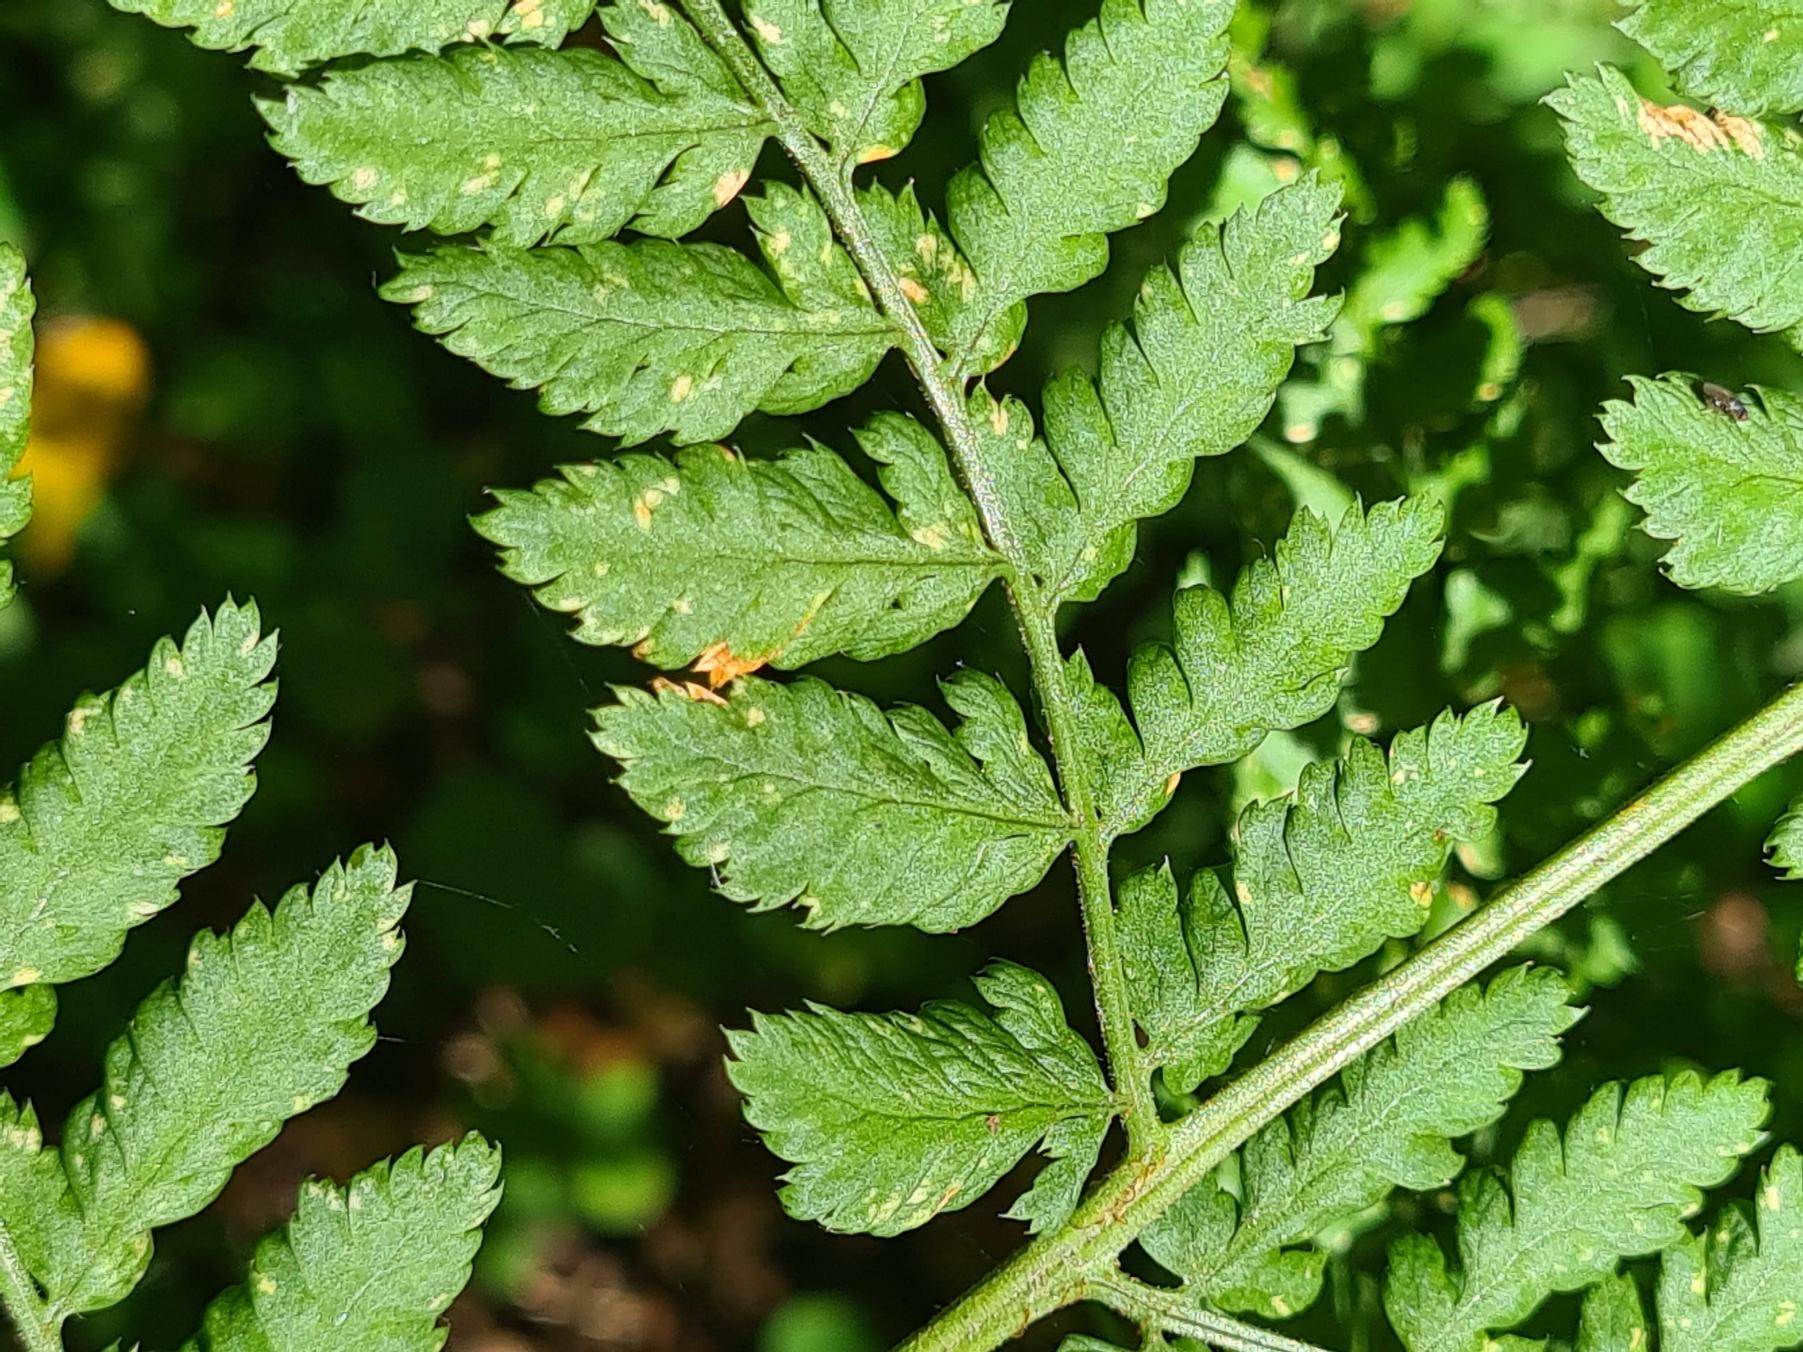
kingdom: Plantae
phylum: Tracheophyta
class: Polypodiopsida
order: Polypodiales
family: Dryopteridaceae
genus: Dryopteris
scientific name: Dryopteris dilatata
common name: Bredbladet mangeløv
